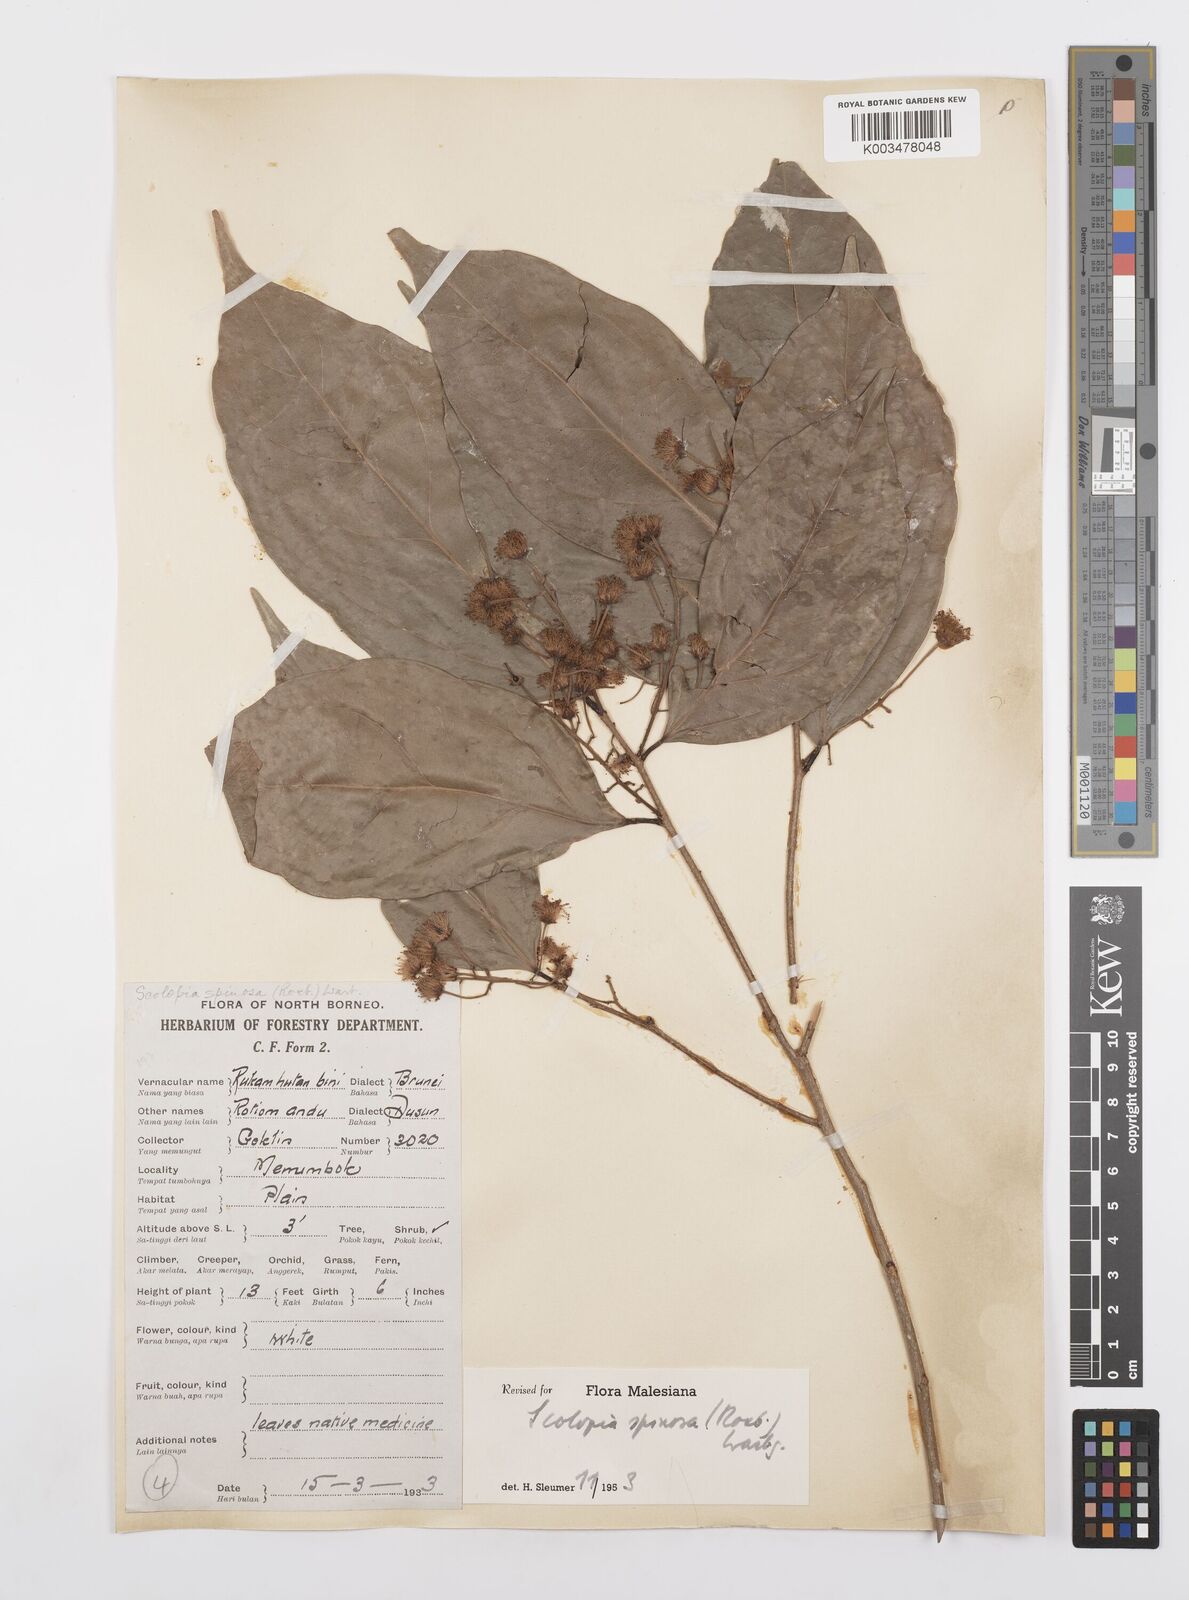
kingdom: Plantae
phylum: Tracheophyta
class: Magnoliopsida
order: Malpighiales
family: Salicaceae
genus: Scolopia
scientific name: Scolopia spinosa
